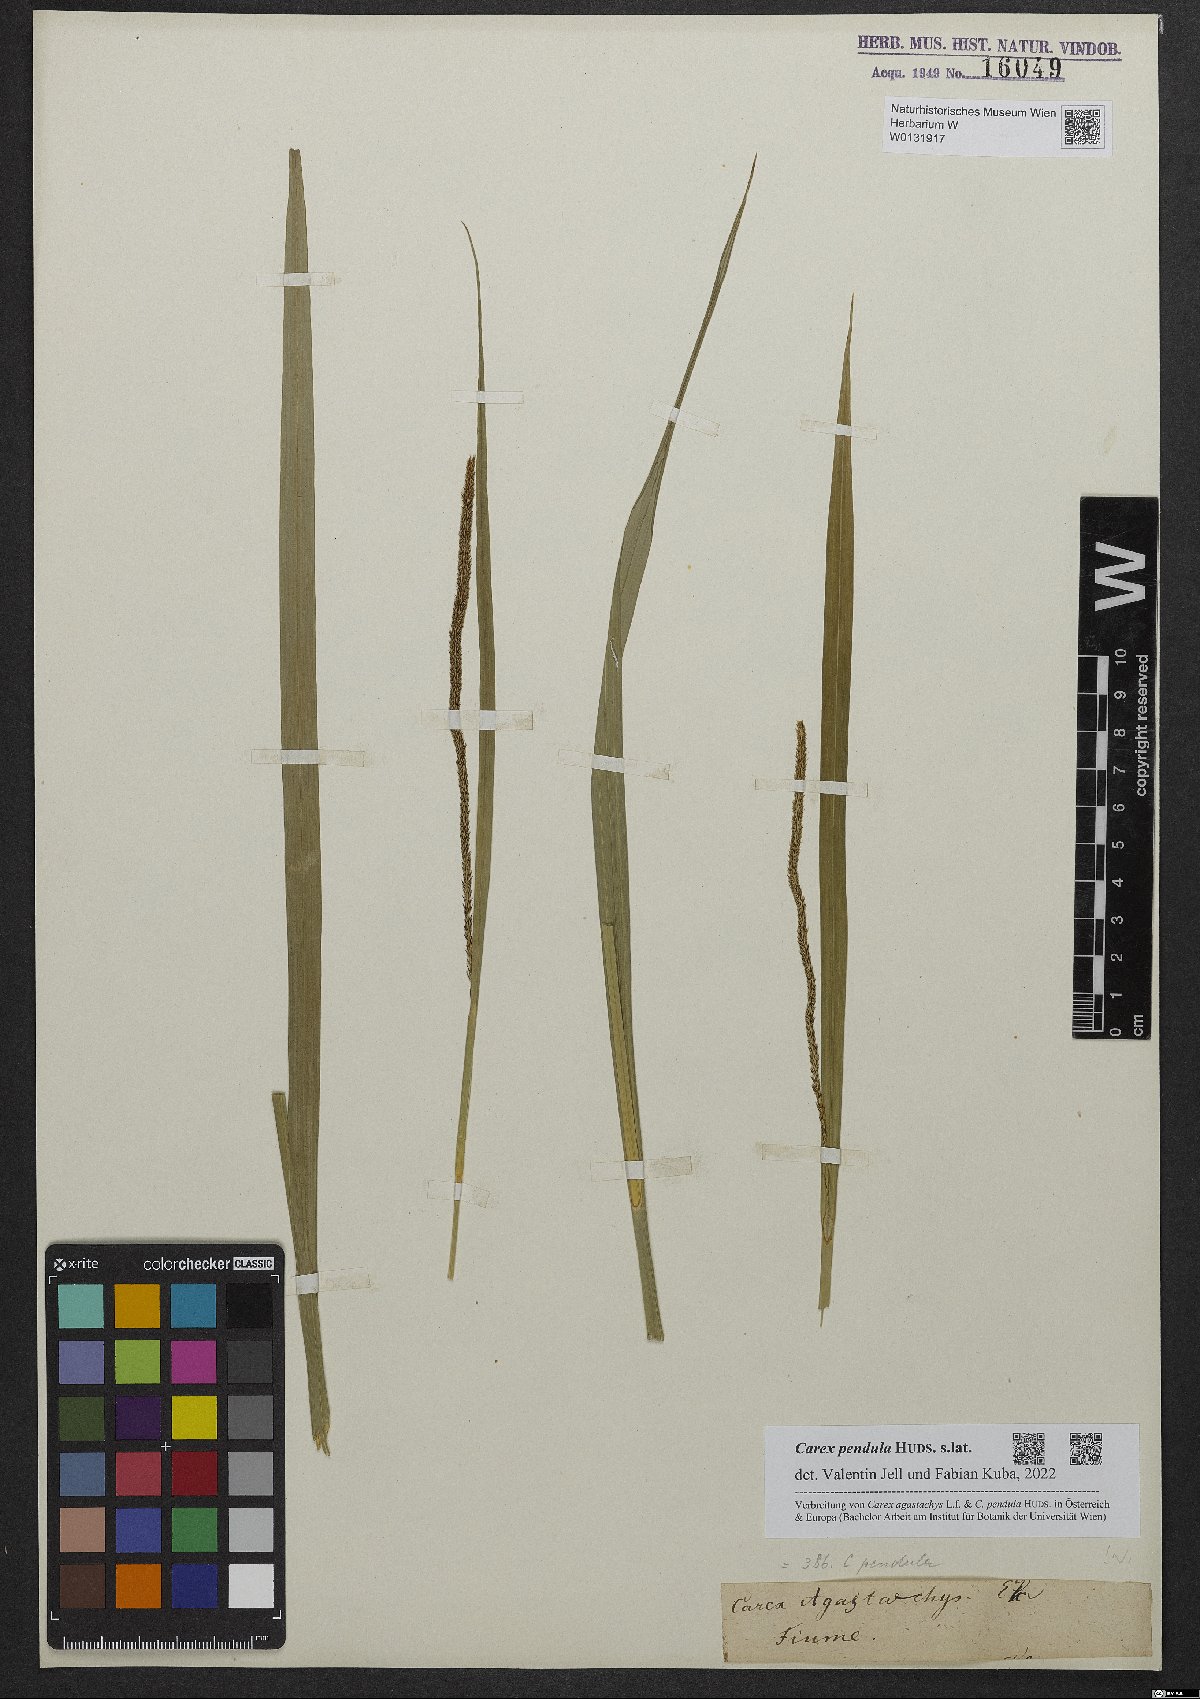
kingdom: Plantae
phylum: Tracheophyta
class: Liliopsida
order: Poales
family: Cyperaceae
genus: Carex
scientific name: Carex pendula
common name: Pendulous sedge
